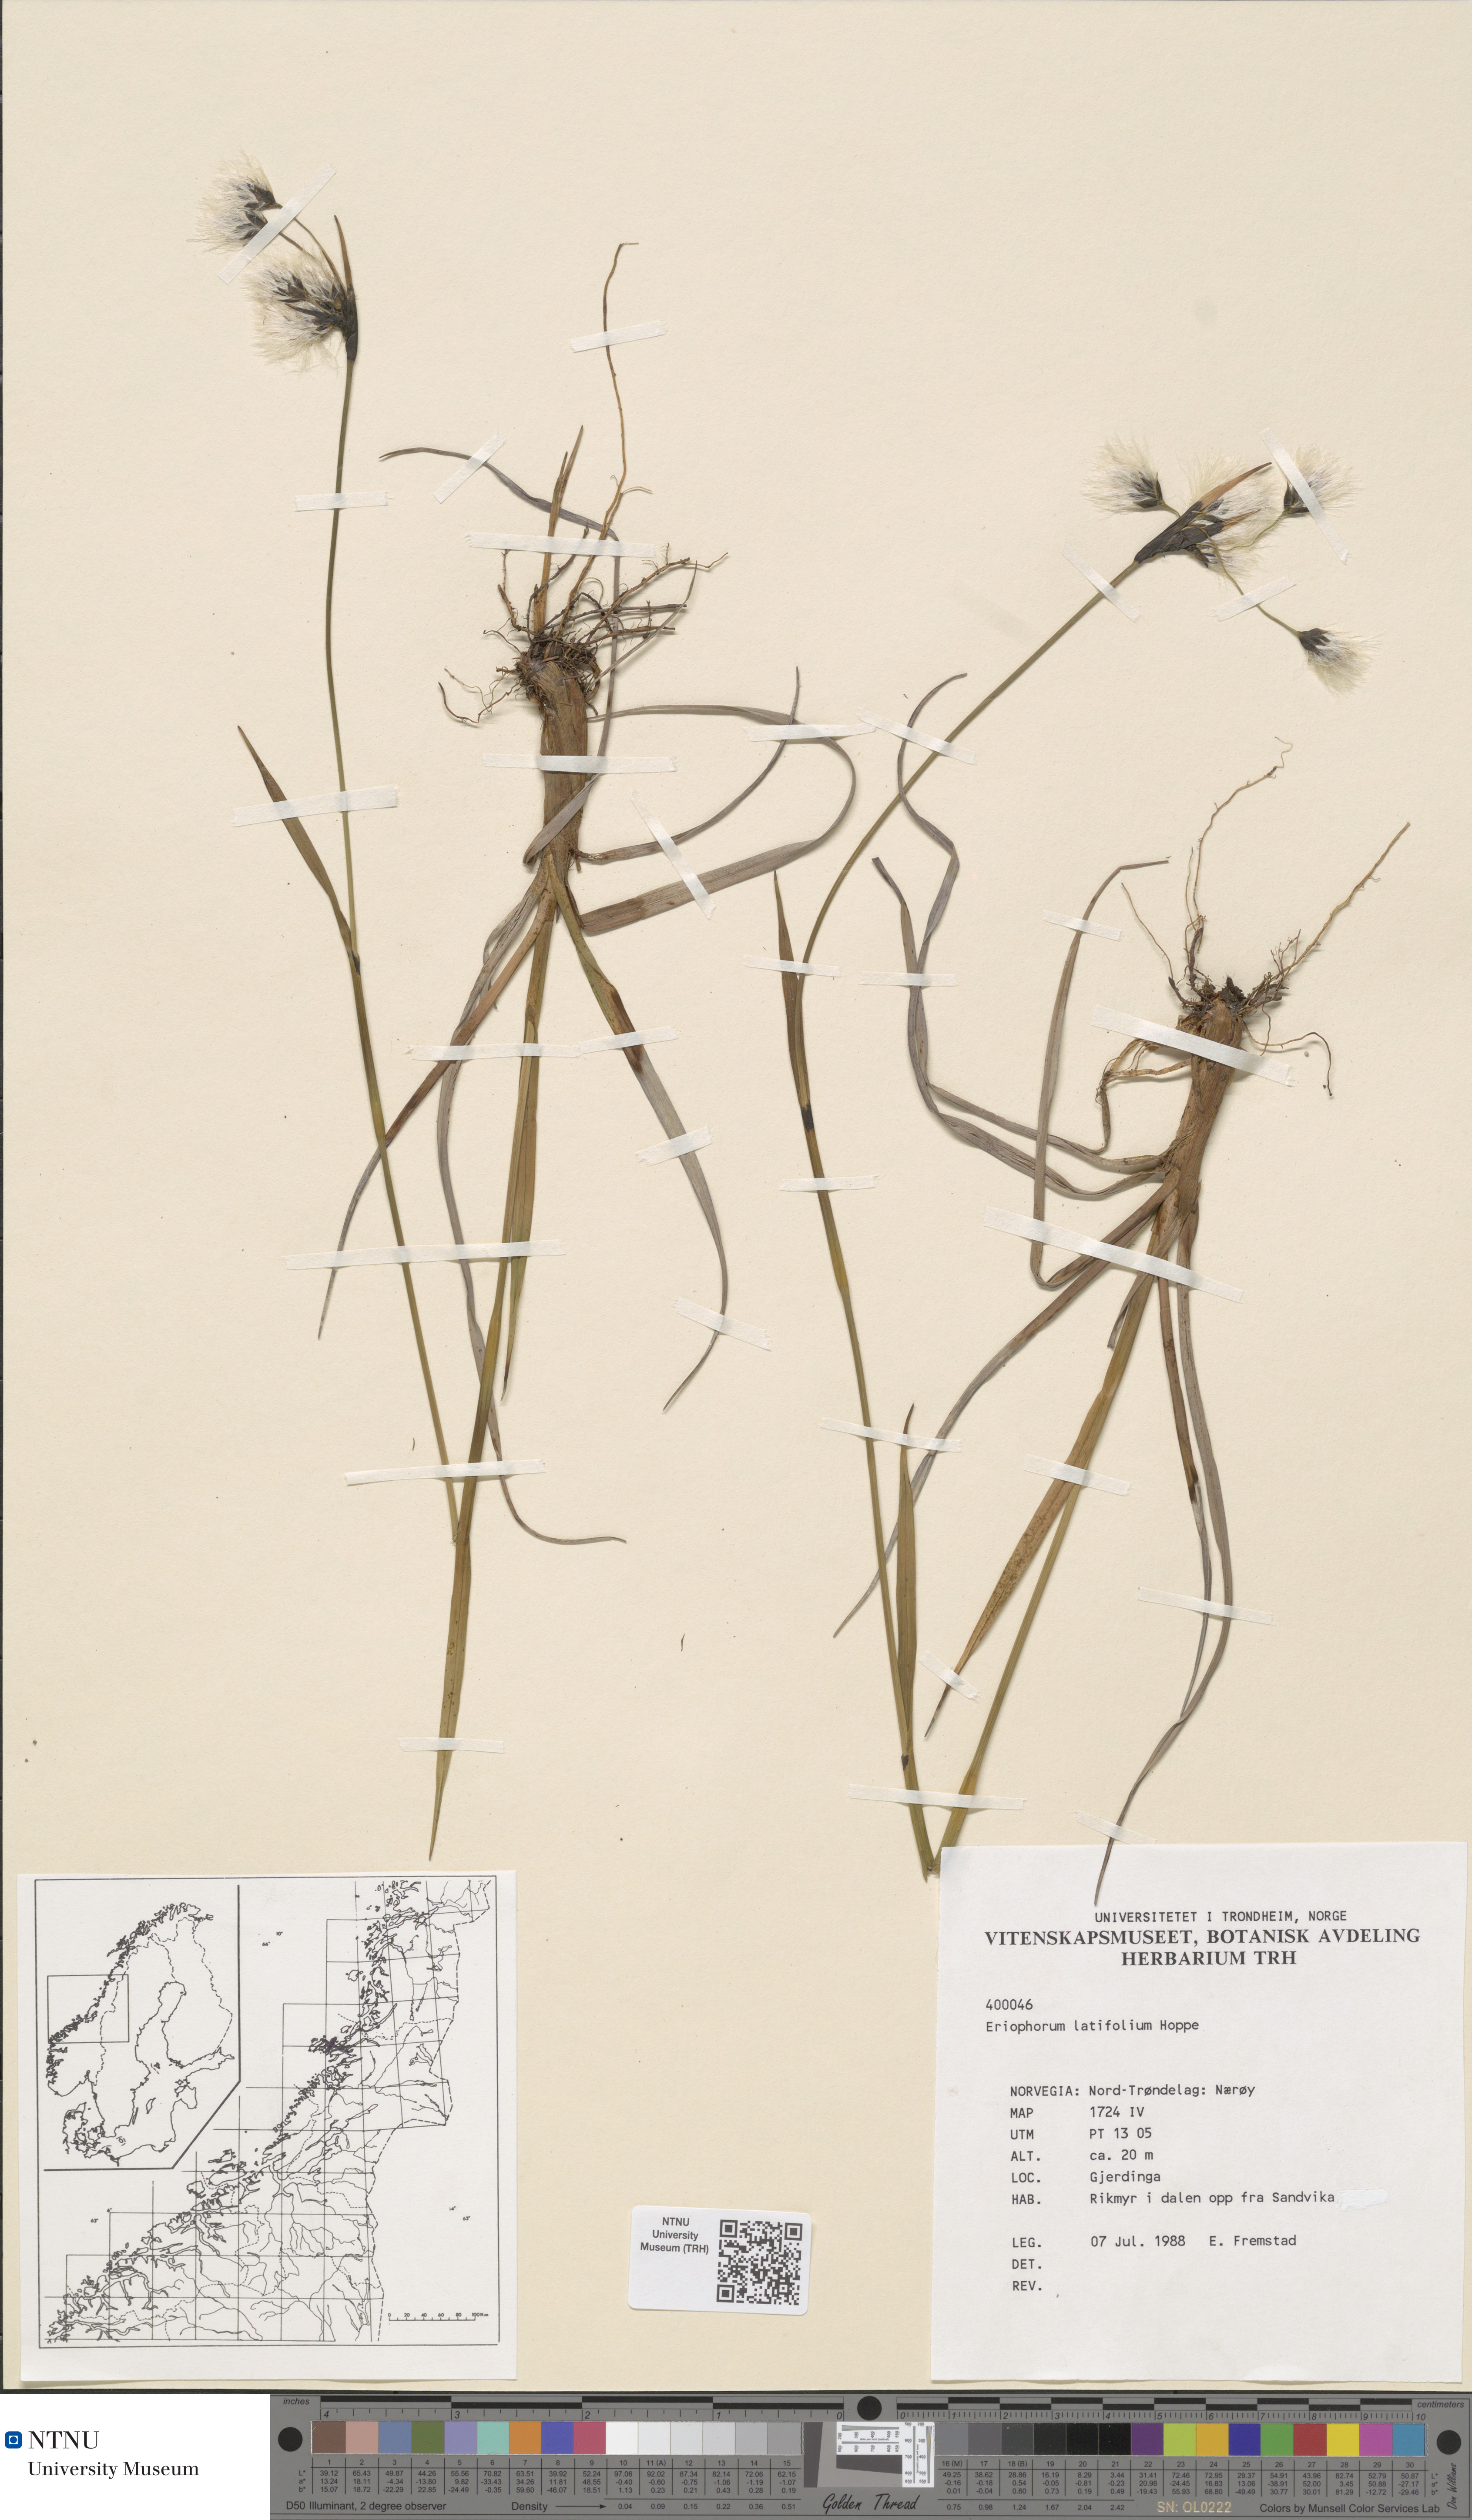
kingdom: Plantae
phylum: Tracheophyta
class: Liliopsida
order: Poales
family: Cyperaceae
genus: Eriophorum
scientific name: Eriophorum latifolium
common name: Broad-leaved cottongrass
